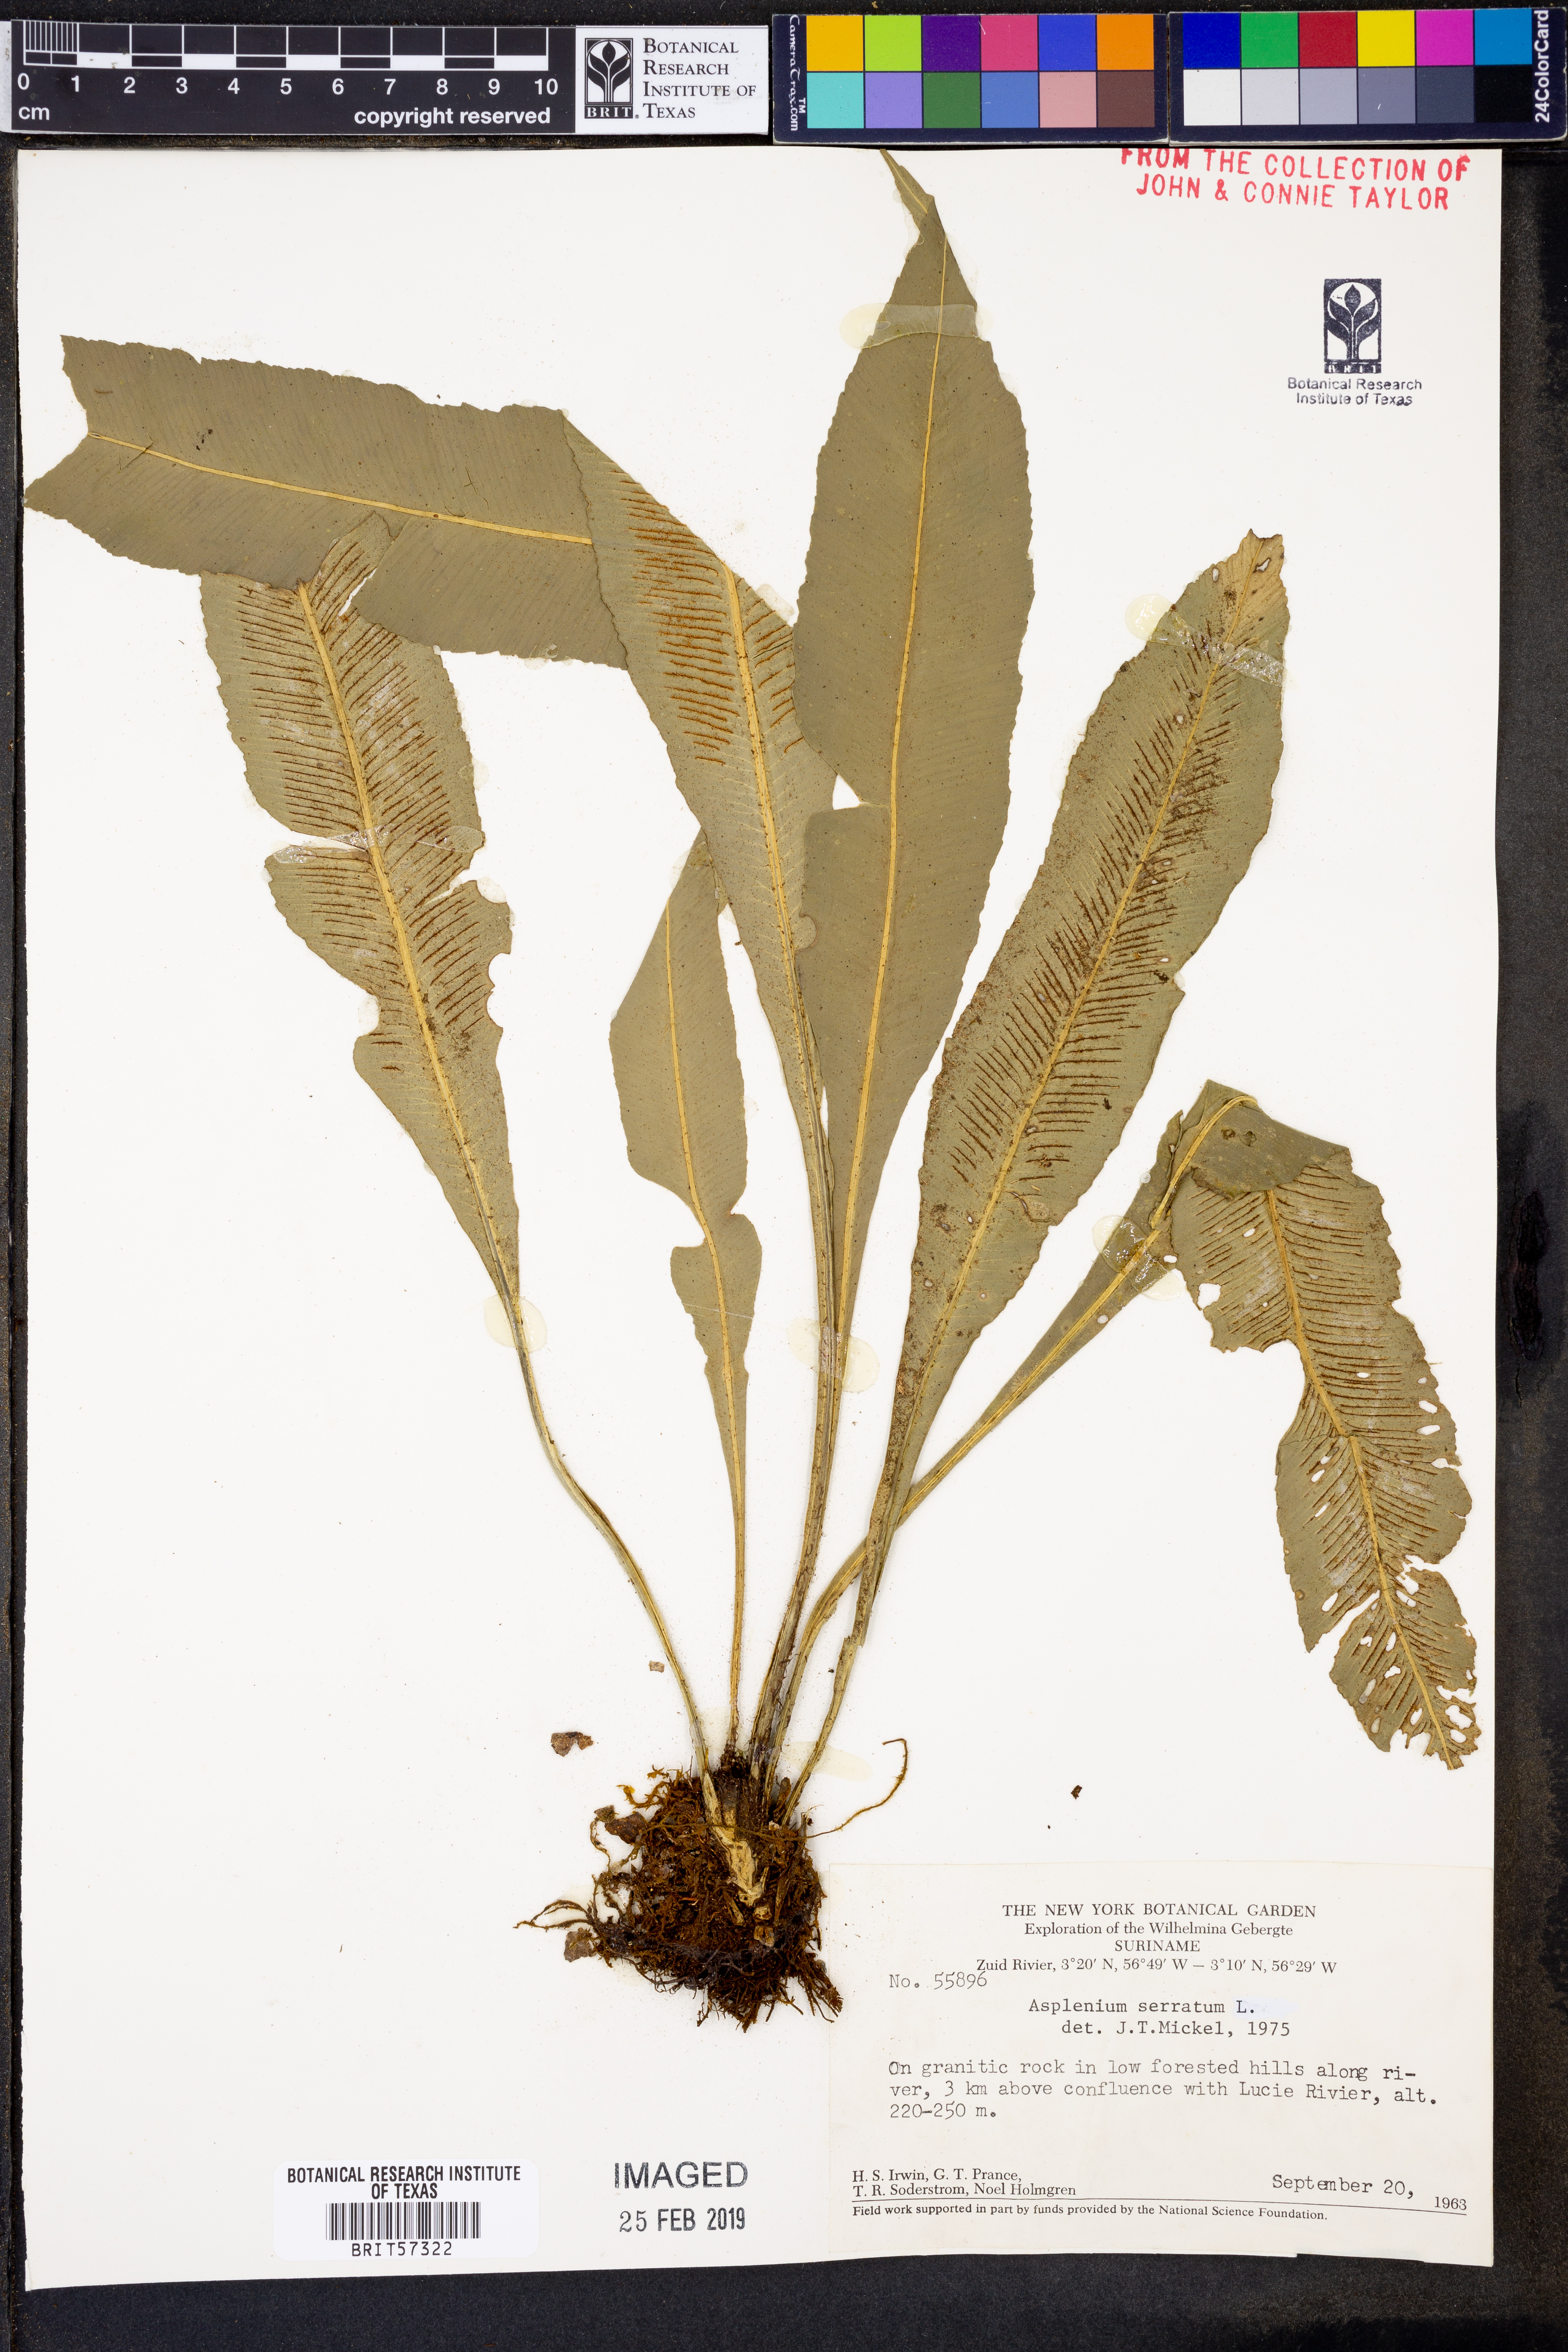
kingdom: Plantae
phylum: Tracheophyta
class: Polypodiopsida
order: Polypodiales
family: Aspleniaceae
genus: Asplenium
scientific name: Asplenium serratum
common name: Wild birdnest fern
